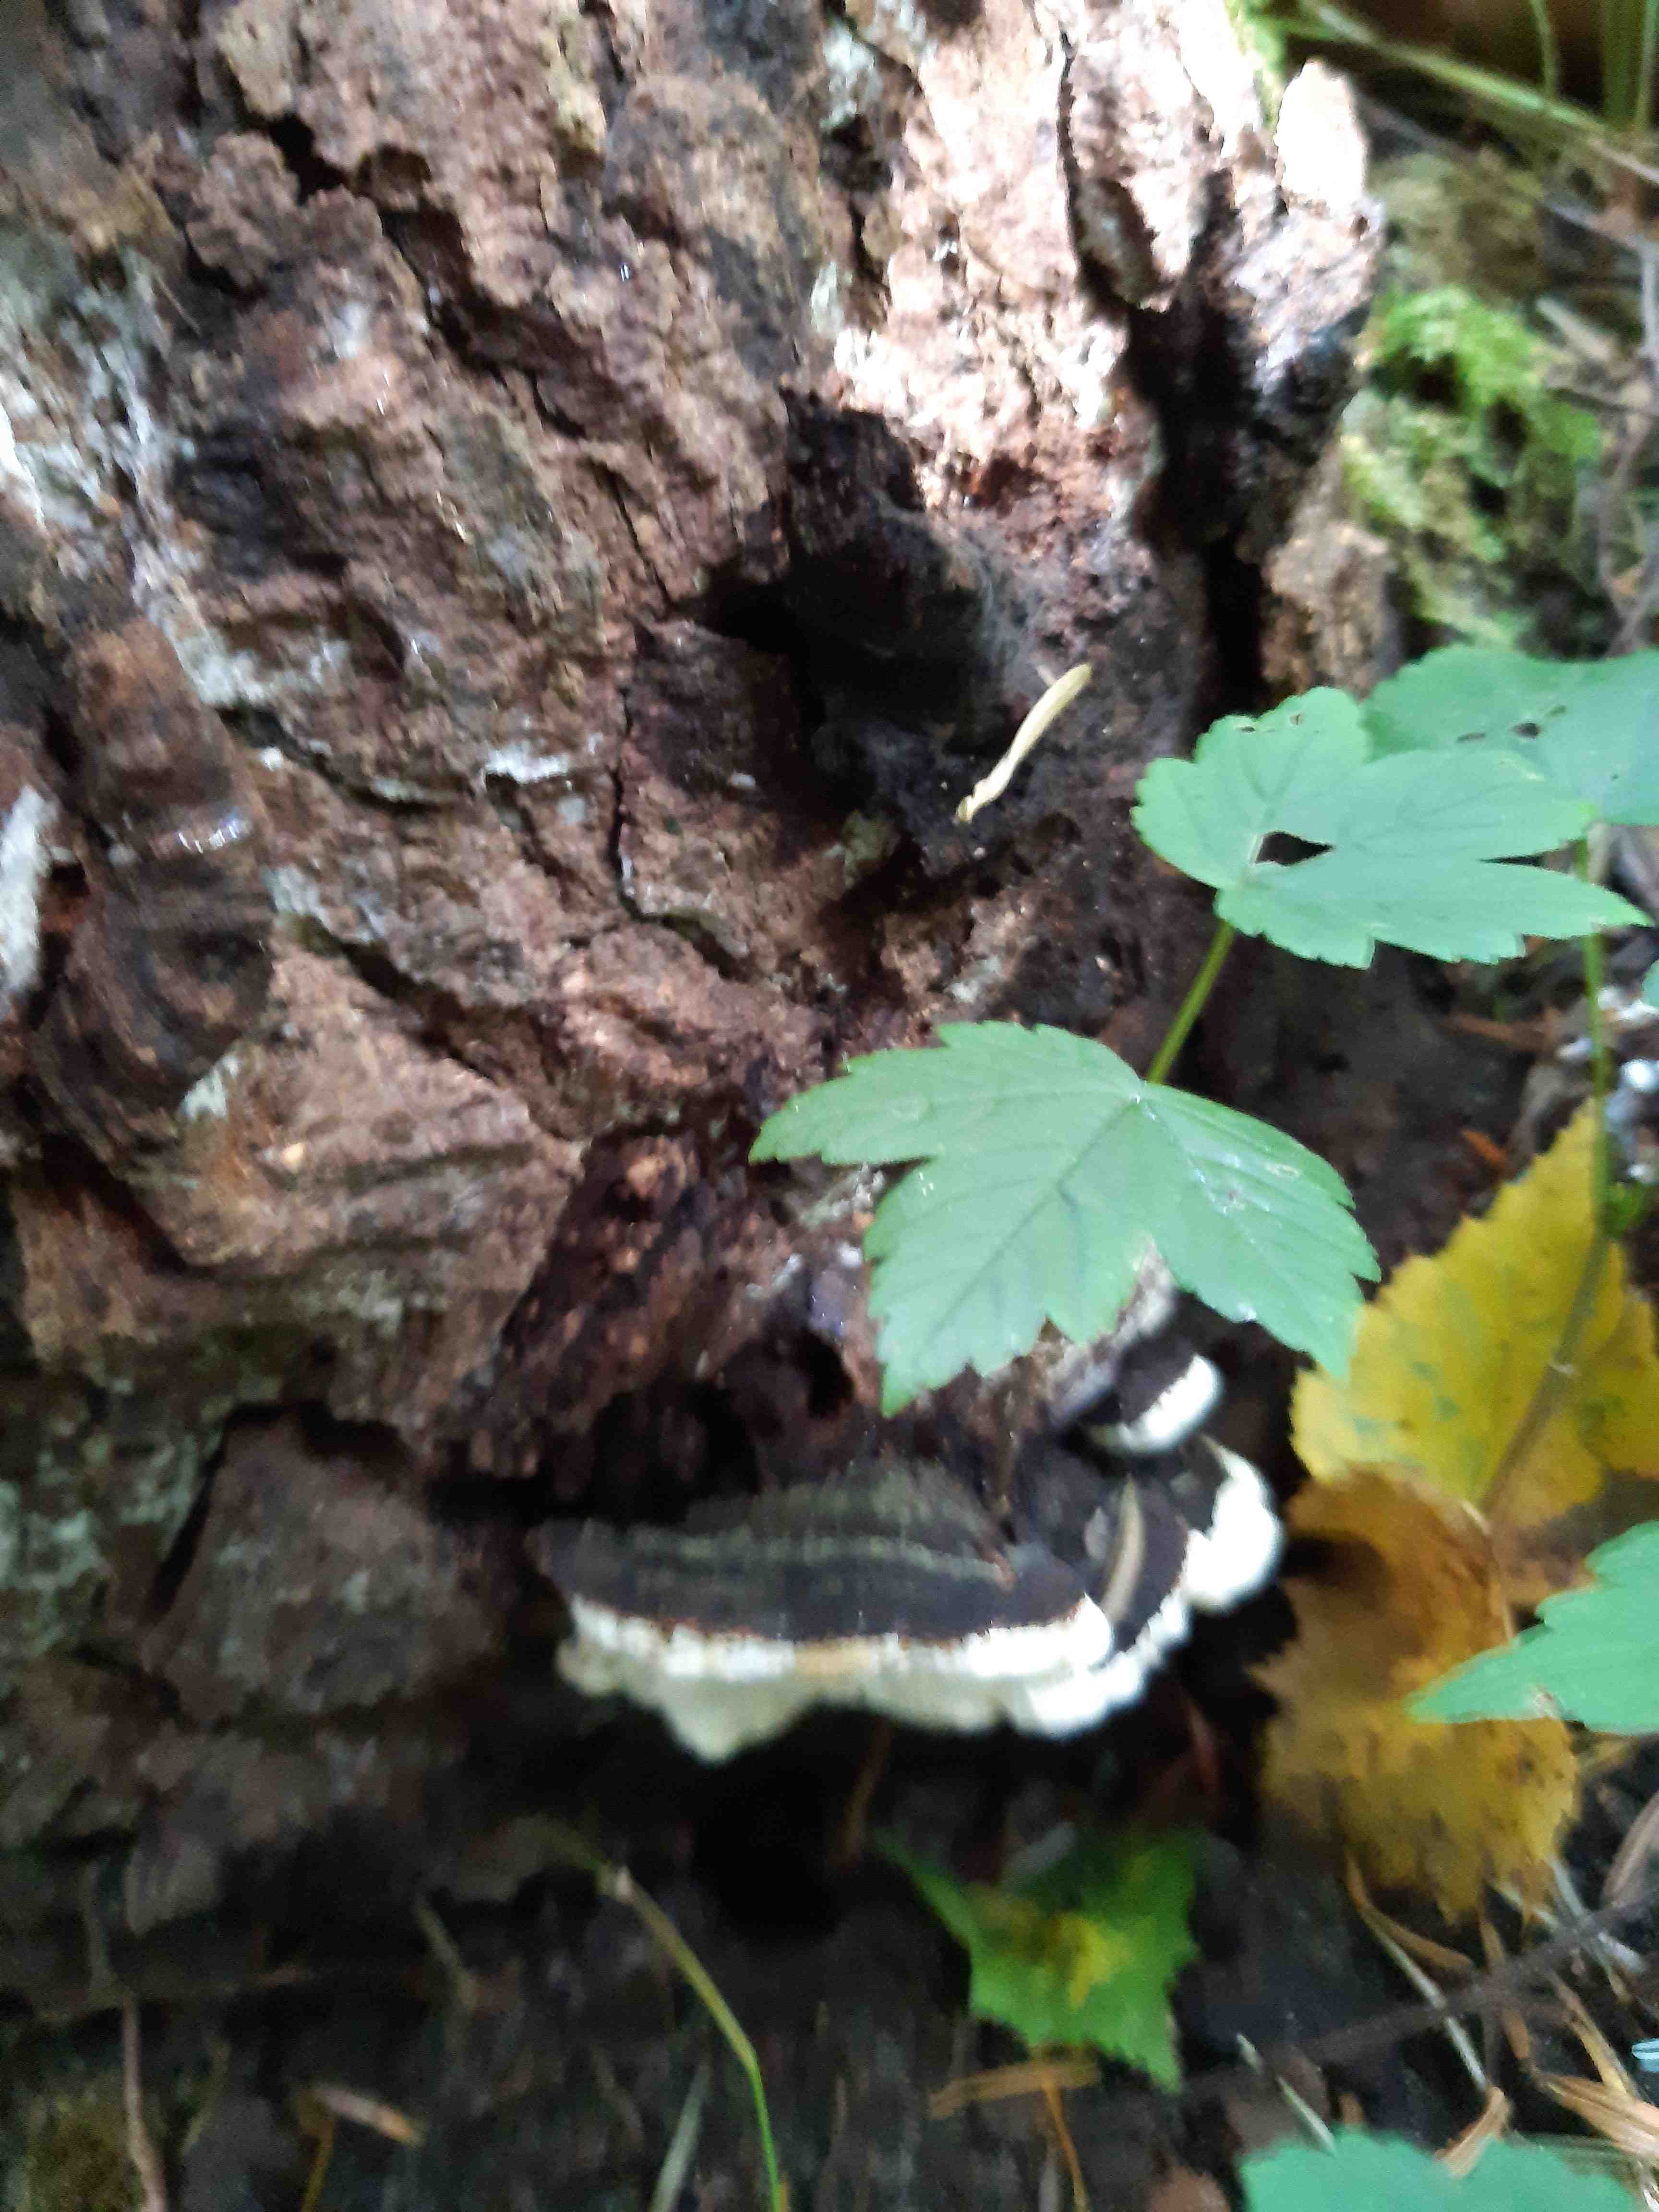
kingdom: Fungi
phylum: Basidiomycota
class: Agaricomycetes
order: Russulales
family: Bondarzewiaceae
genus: Heterobasidion
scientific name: Heterobasidion annosum
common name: almindelig rodfordærver
